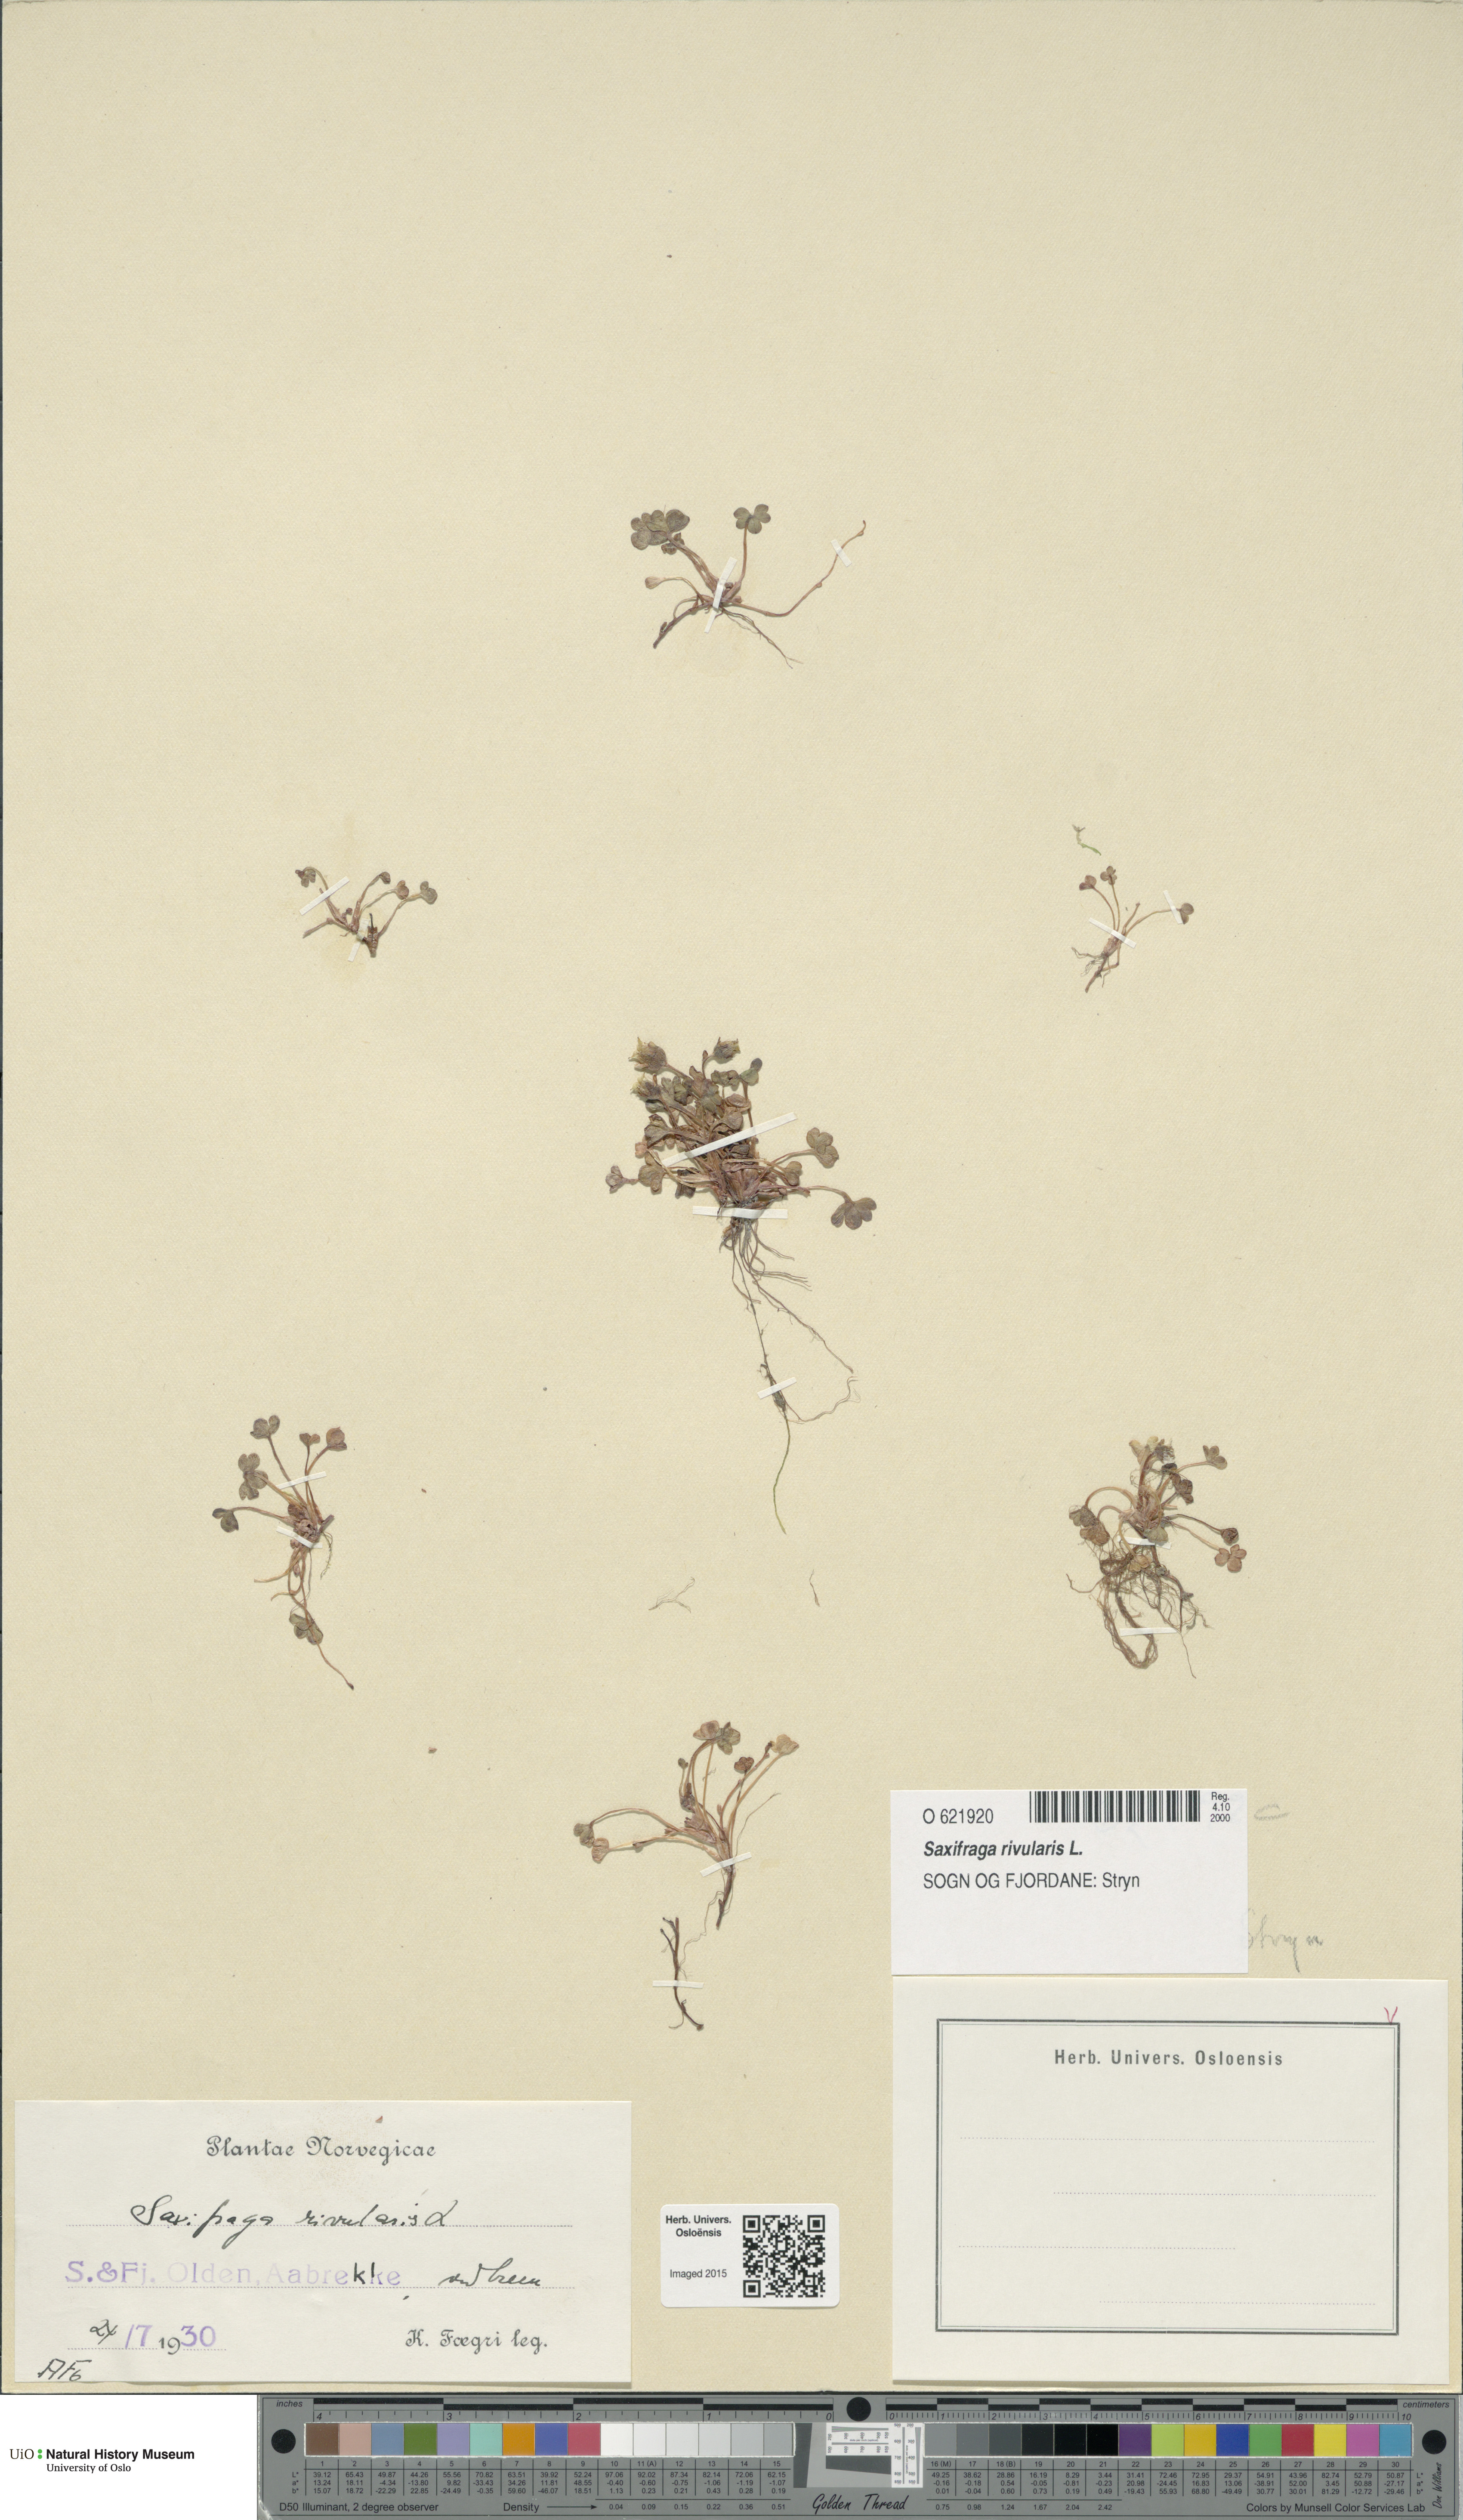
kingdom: Plantae
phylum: Tracheophyta
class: Magnoliopsida
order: Saxifragales
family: Saxifragaceae
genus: Saxifraga
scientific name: Saxifraga rivularis
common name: Highland saxifrage
